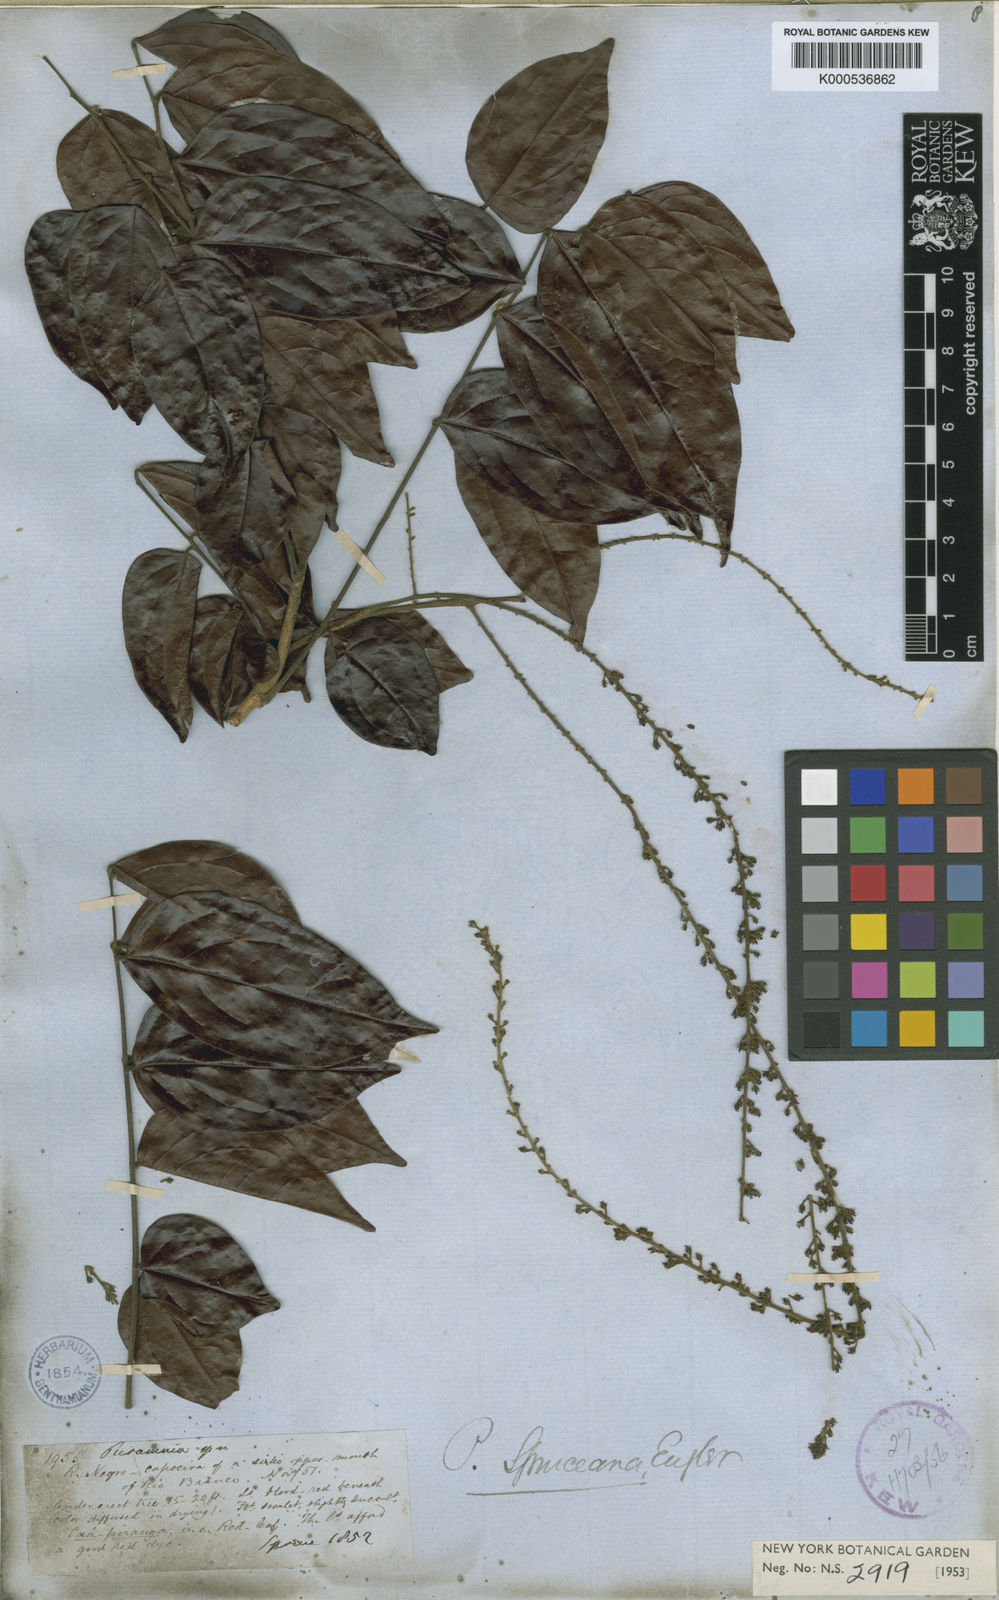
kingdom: Plantae
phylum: Tracheophyta
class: Magnoliopsida
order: Picramniales
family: Picramniaceae
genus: Picramnia
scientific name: Picramnia spruceana
